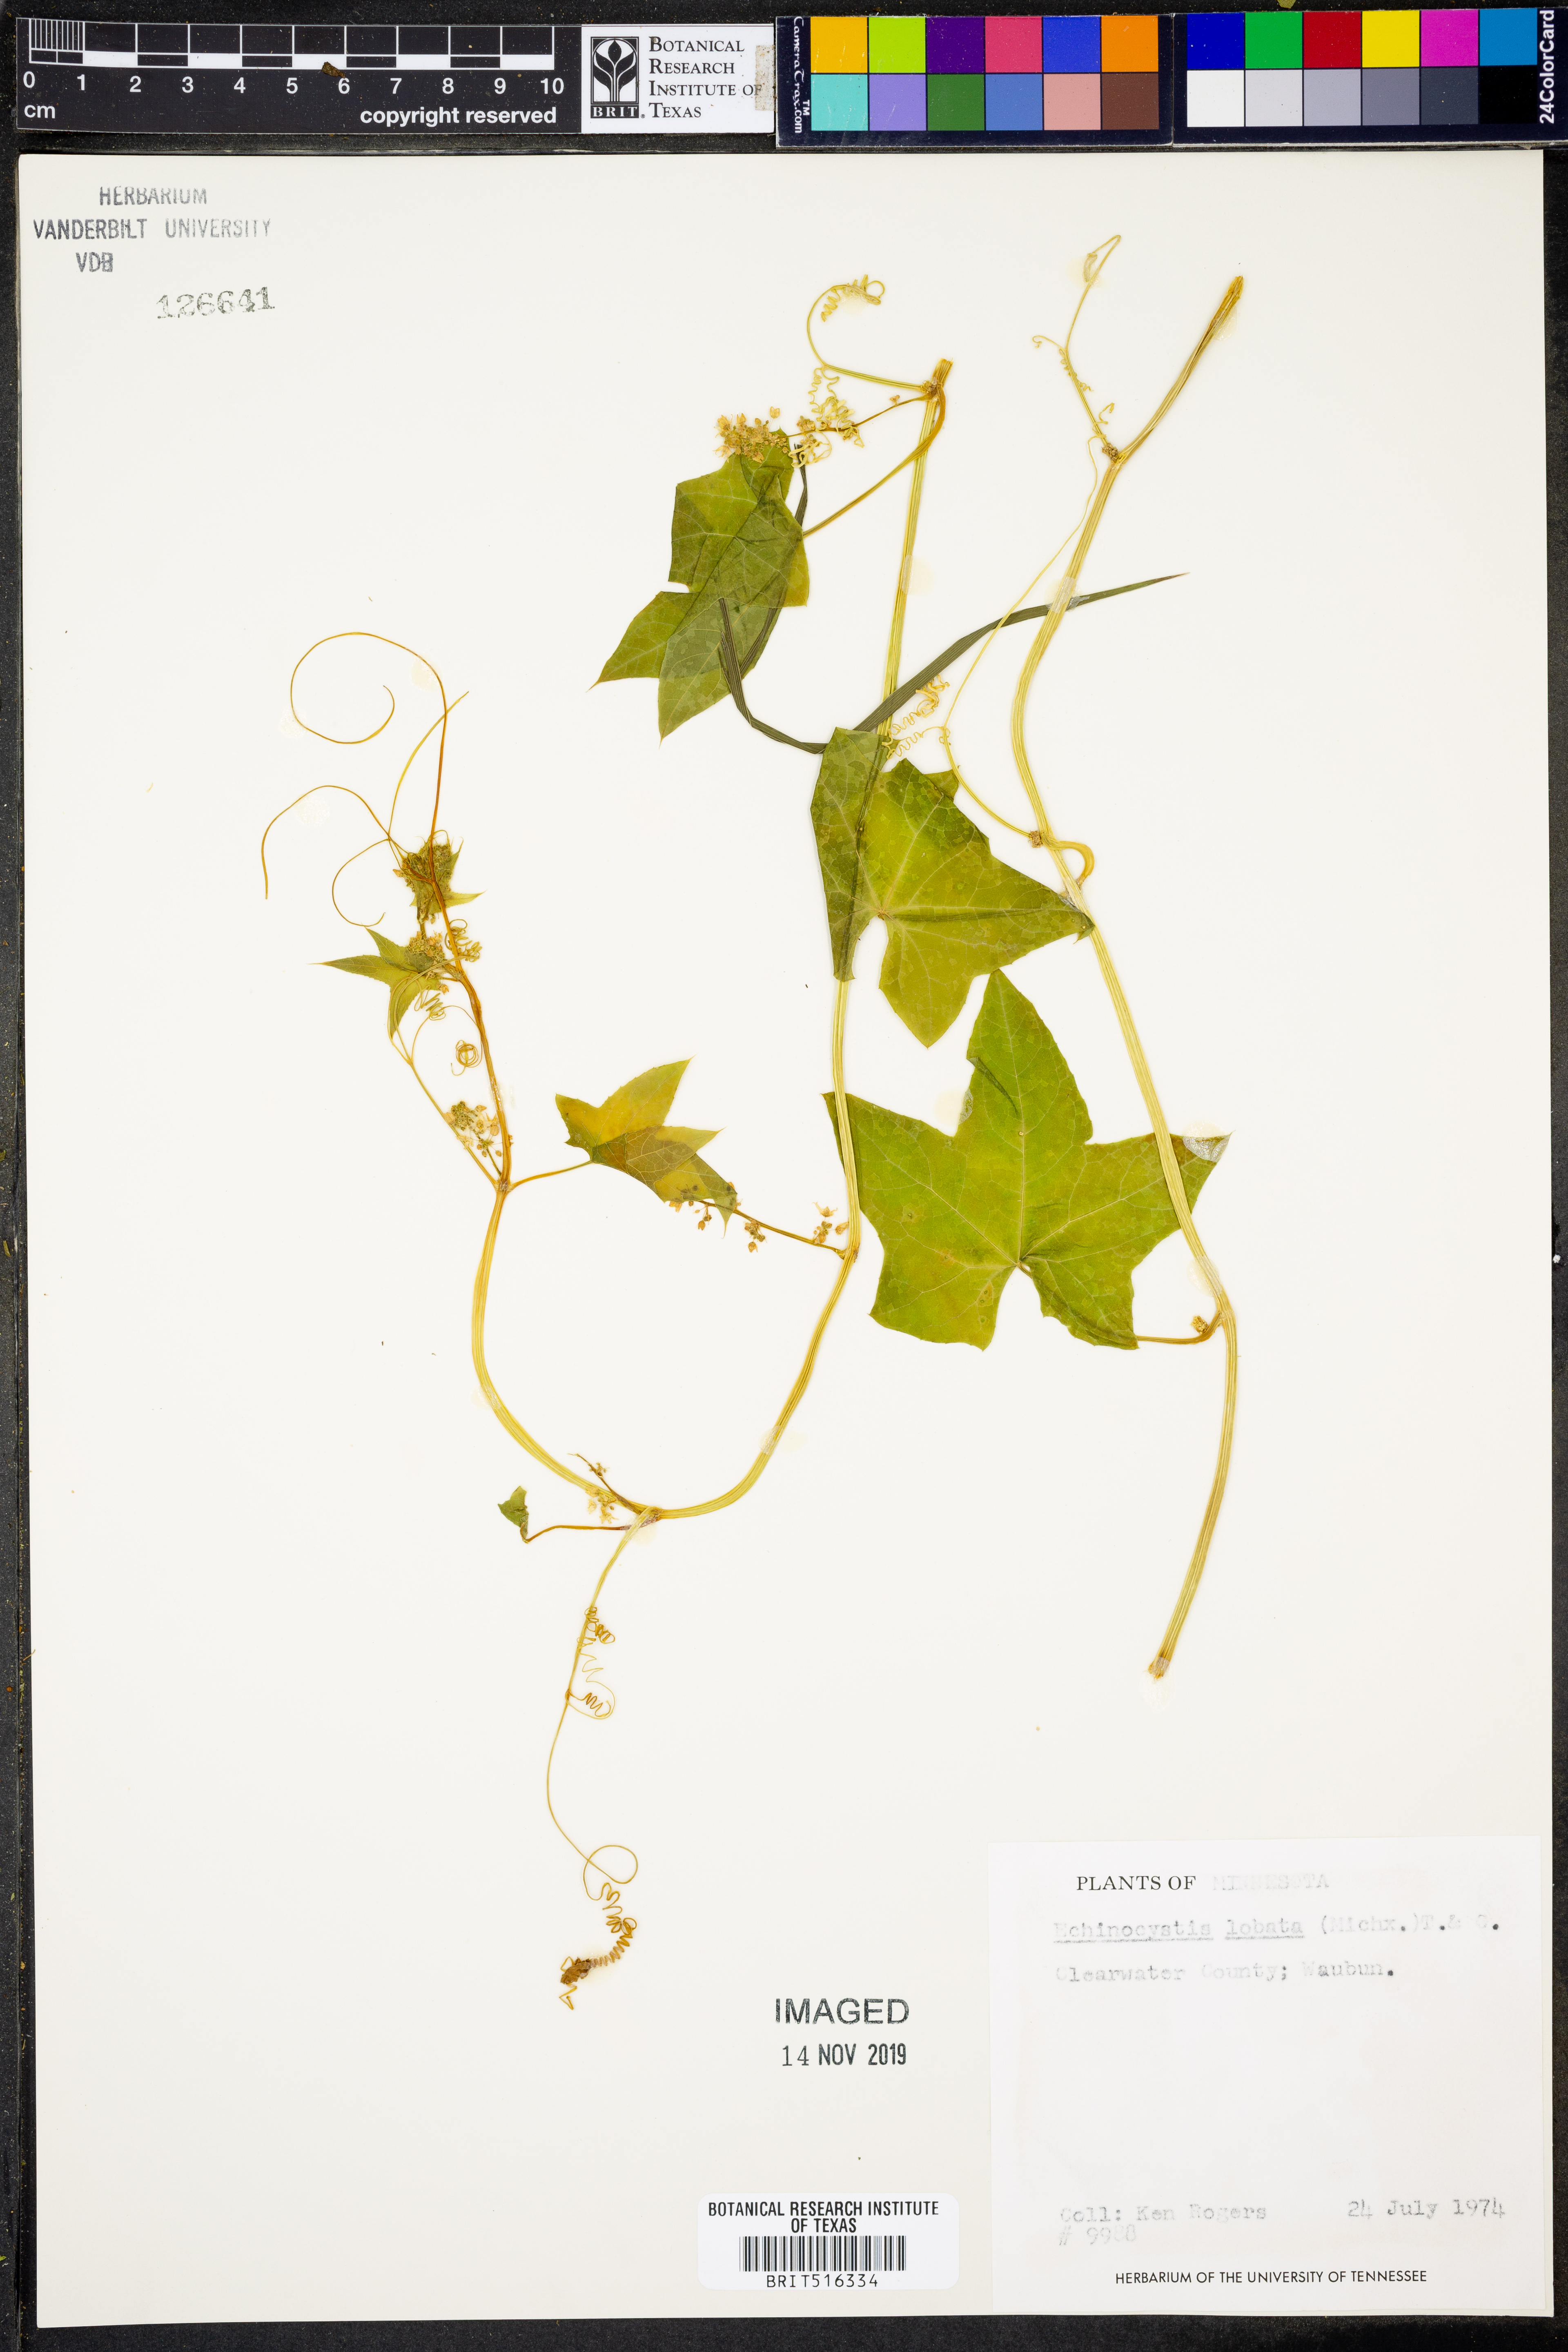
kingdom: Plantae
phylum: Tracheophyta
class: Magnoliopsida
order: Cucurbitales
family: Cucurbitaceae
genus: Echinocystis
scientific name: Echinocystis lobata
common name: Wild cucumber
